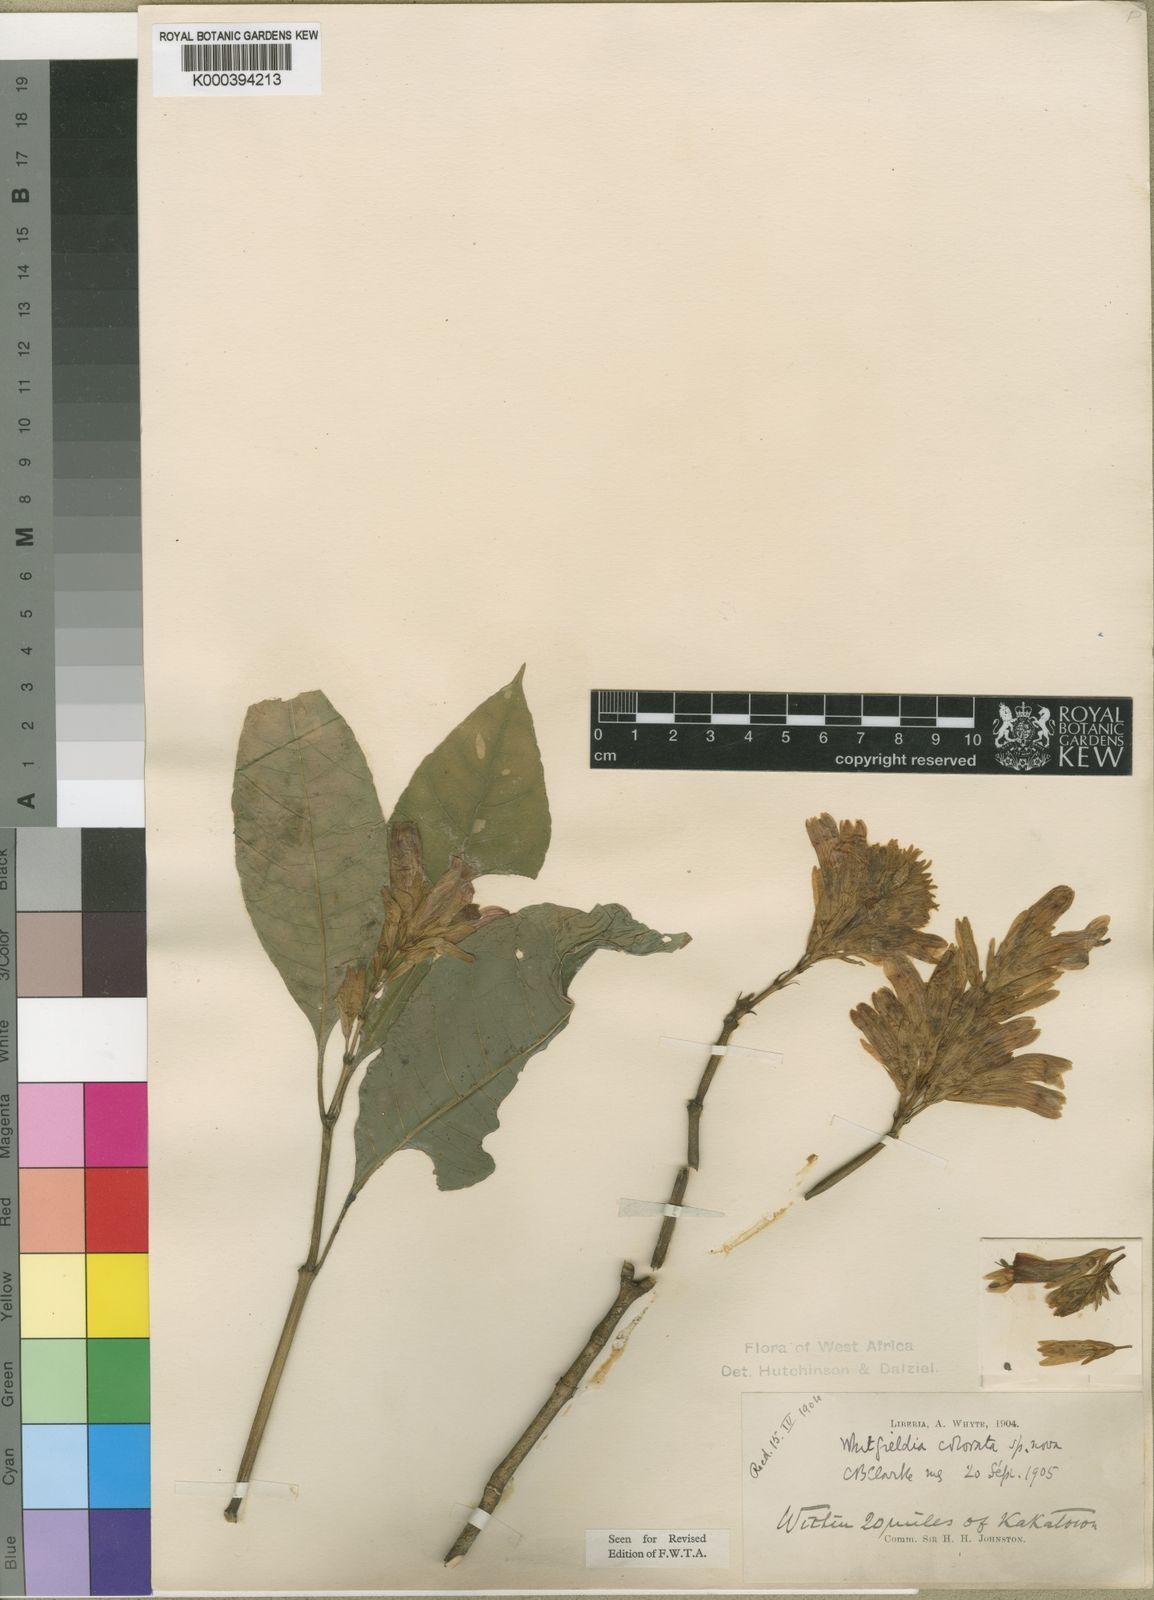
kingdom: Plantae
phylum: Tracheophyta
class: Magnoliopsida
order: Lamiales
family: Acanthaceae
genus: Whitfieldia
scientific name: Whitfieldia
